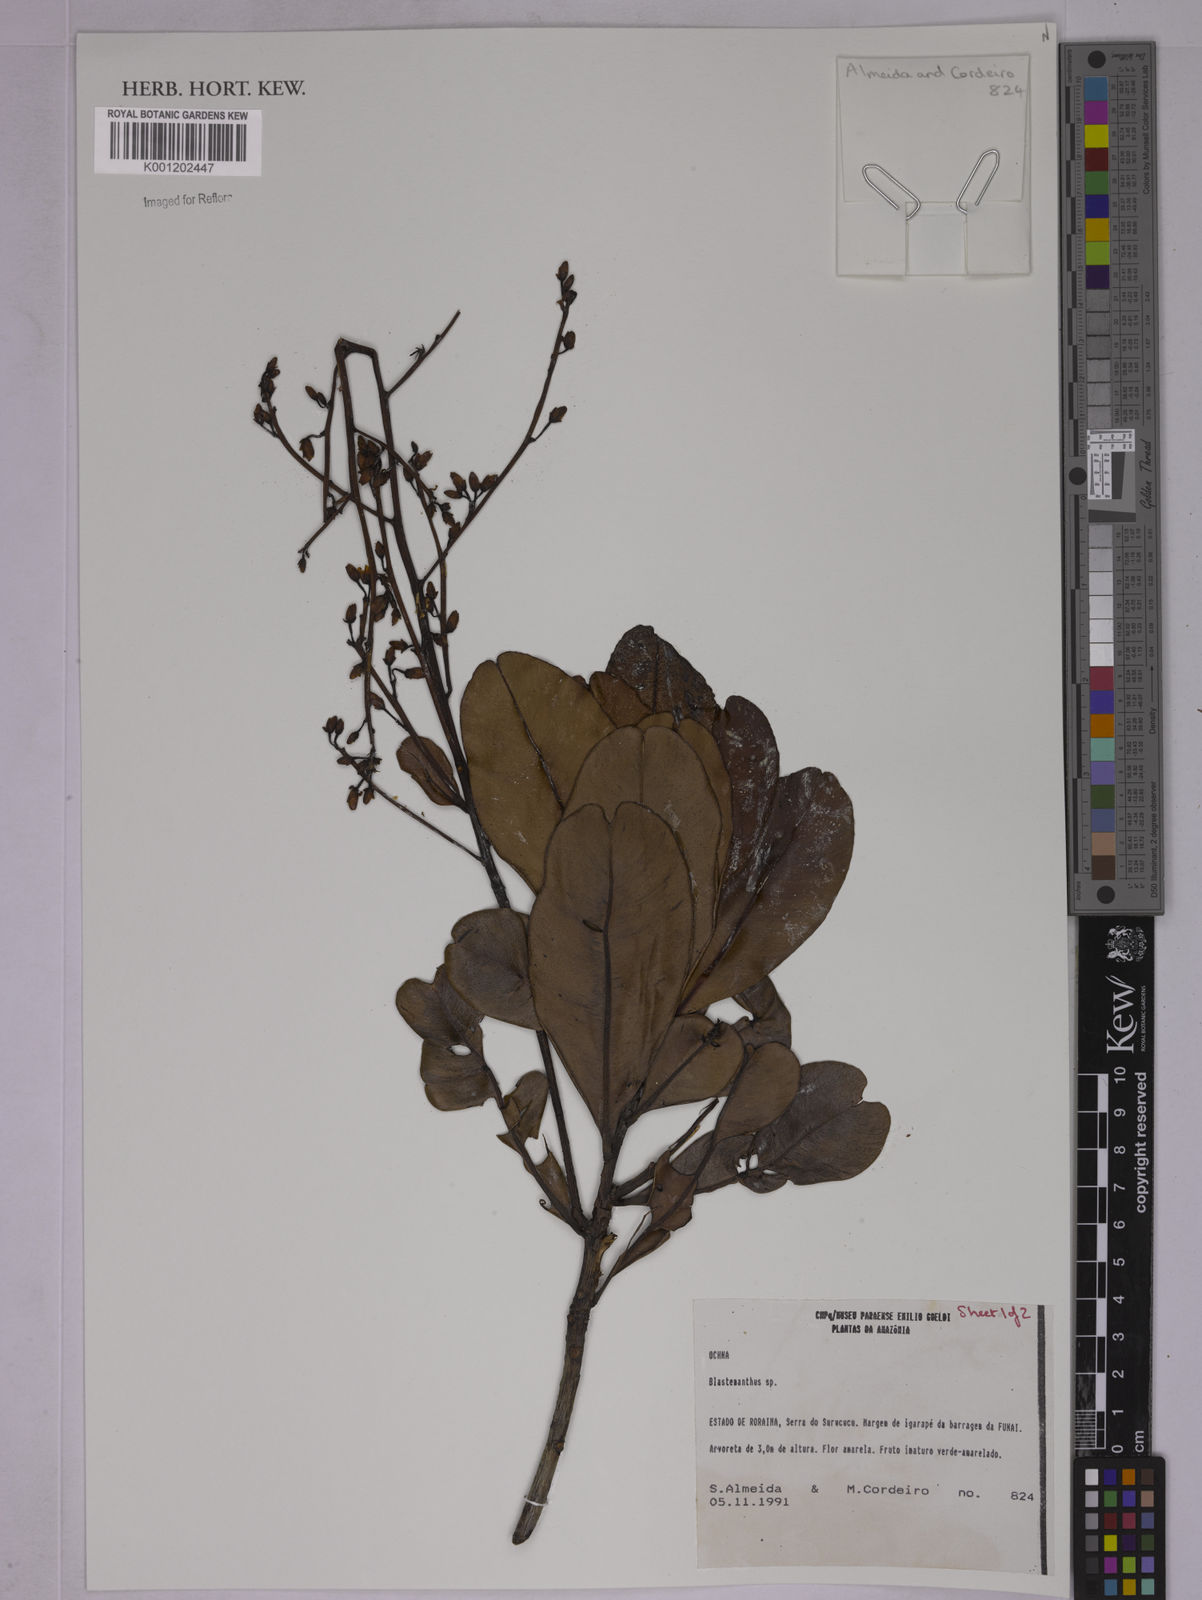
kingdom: Plantae
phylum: Tracheophyta
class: Magnoliopsida
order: Malpighiales
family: Ochnaceae
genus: Poecilandra
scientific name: Poecilandra retusa
